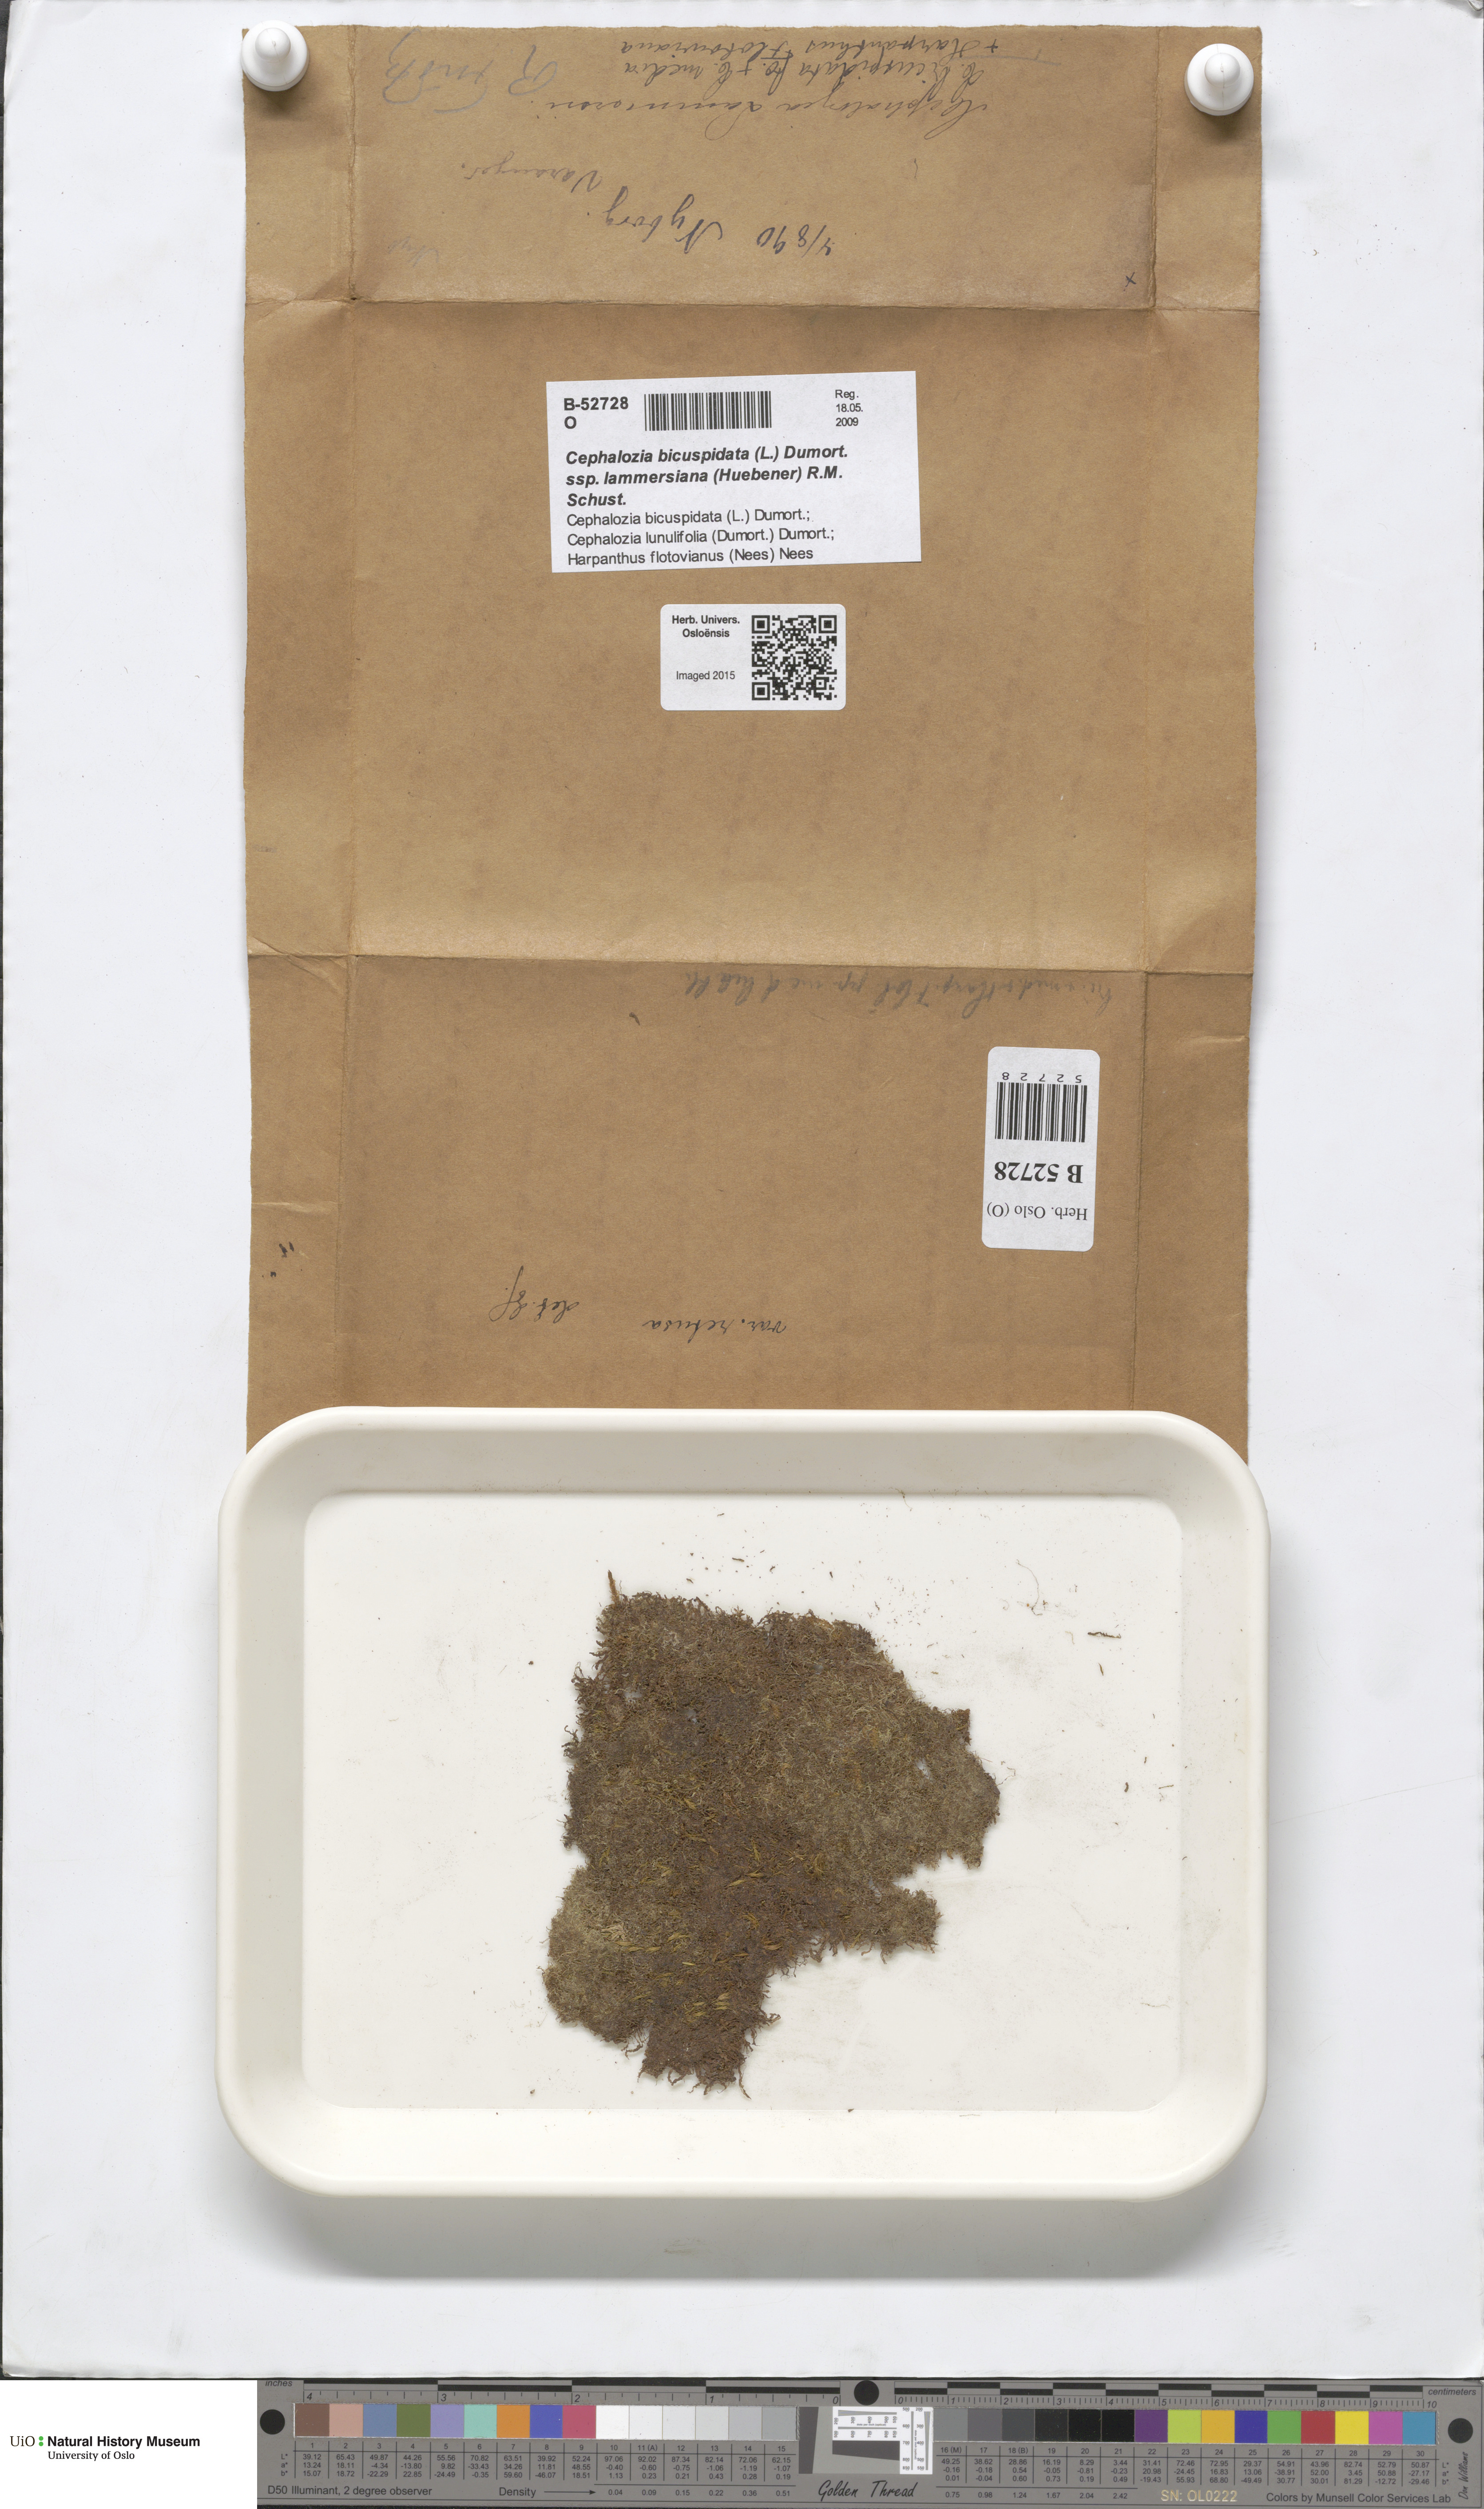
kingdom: Plantae
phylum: Marchantiophyta
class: Jungermanniopsida
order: Jungermanniales
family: Cephaloziaceae
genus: Cephalozia
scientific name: Cephalozia bicuspidata
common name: Two-horned pincerwort
